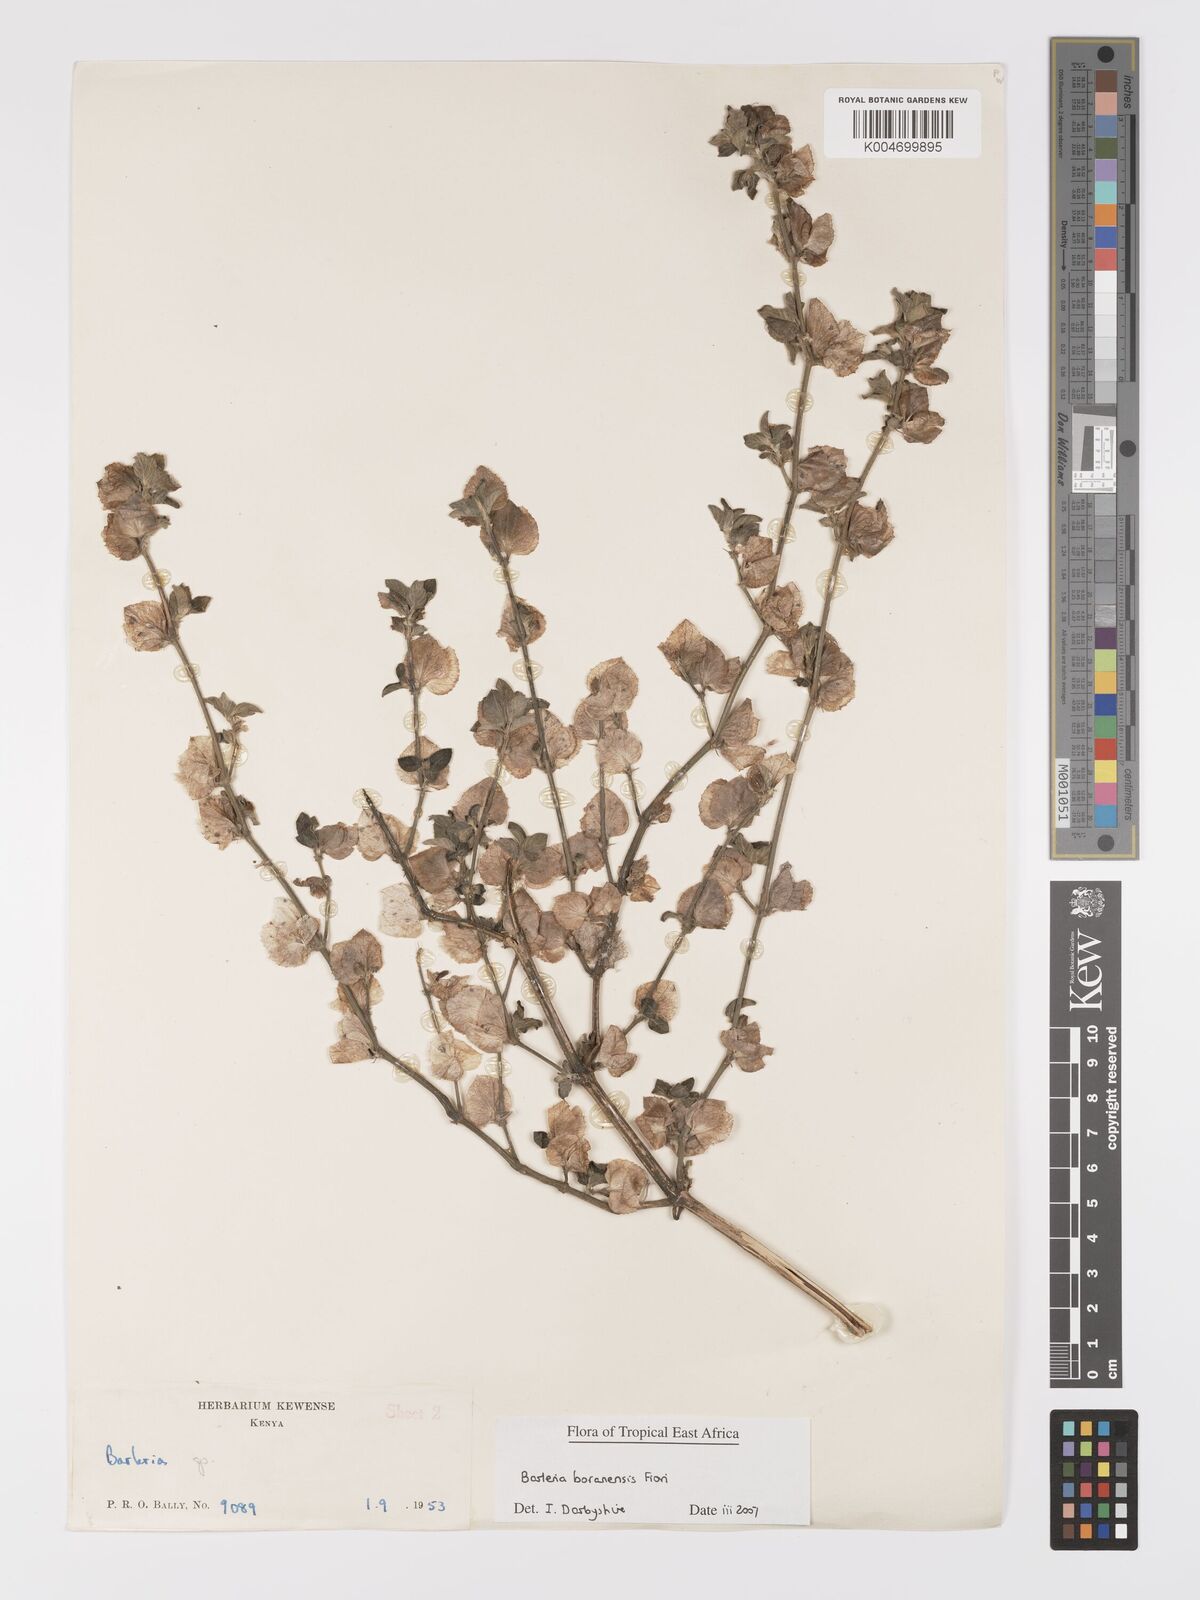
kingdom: Plantae
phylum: Tracheophyta
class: Magnoliopsida
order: Lamiales
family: Acanthaceae
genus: Barleria
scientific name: Barleria boranensis
